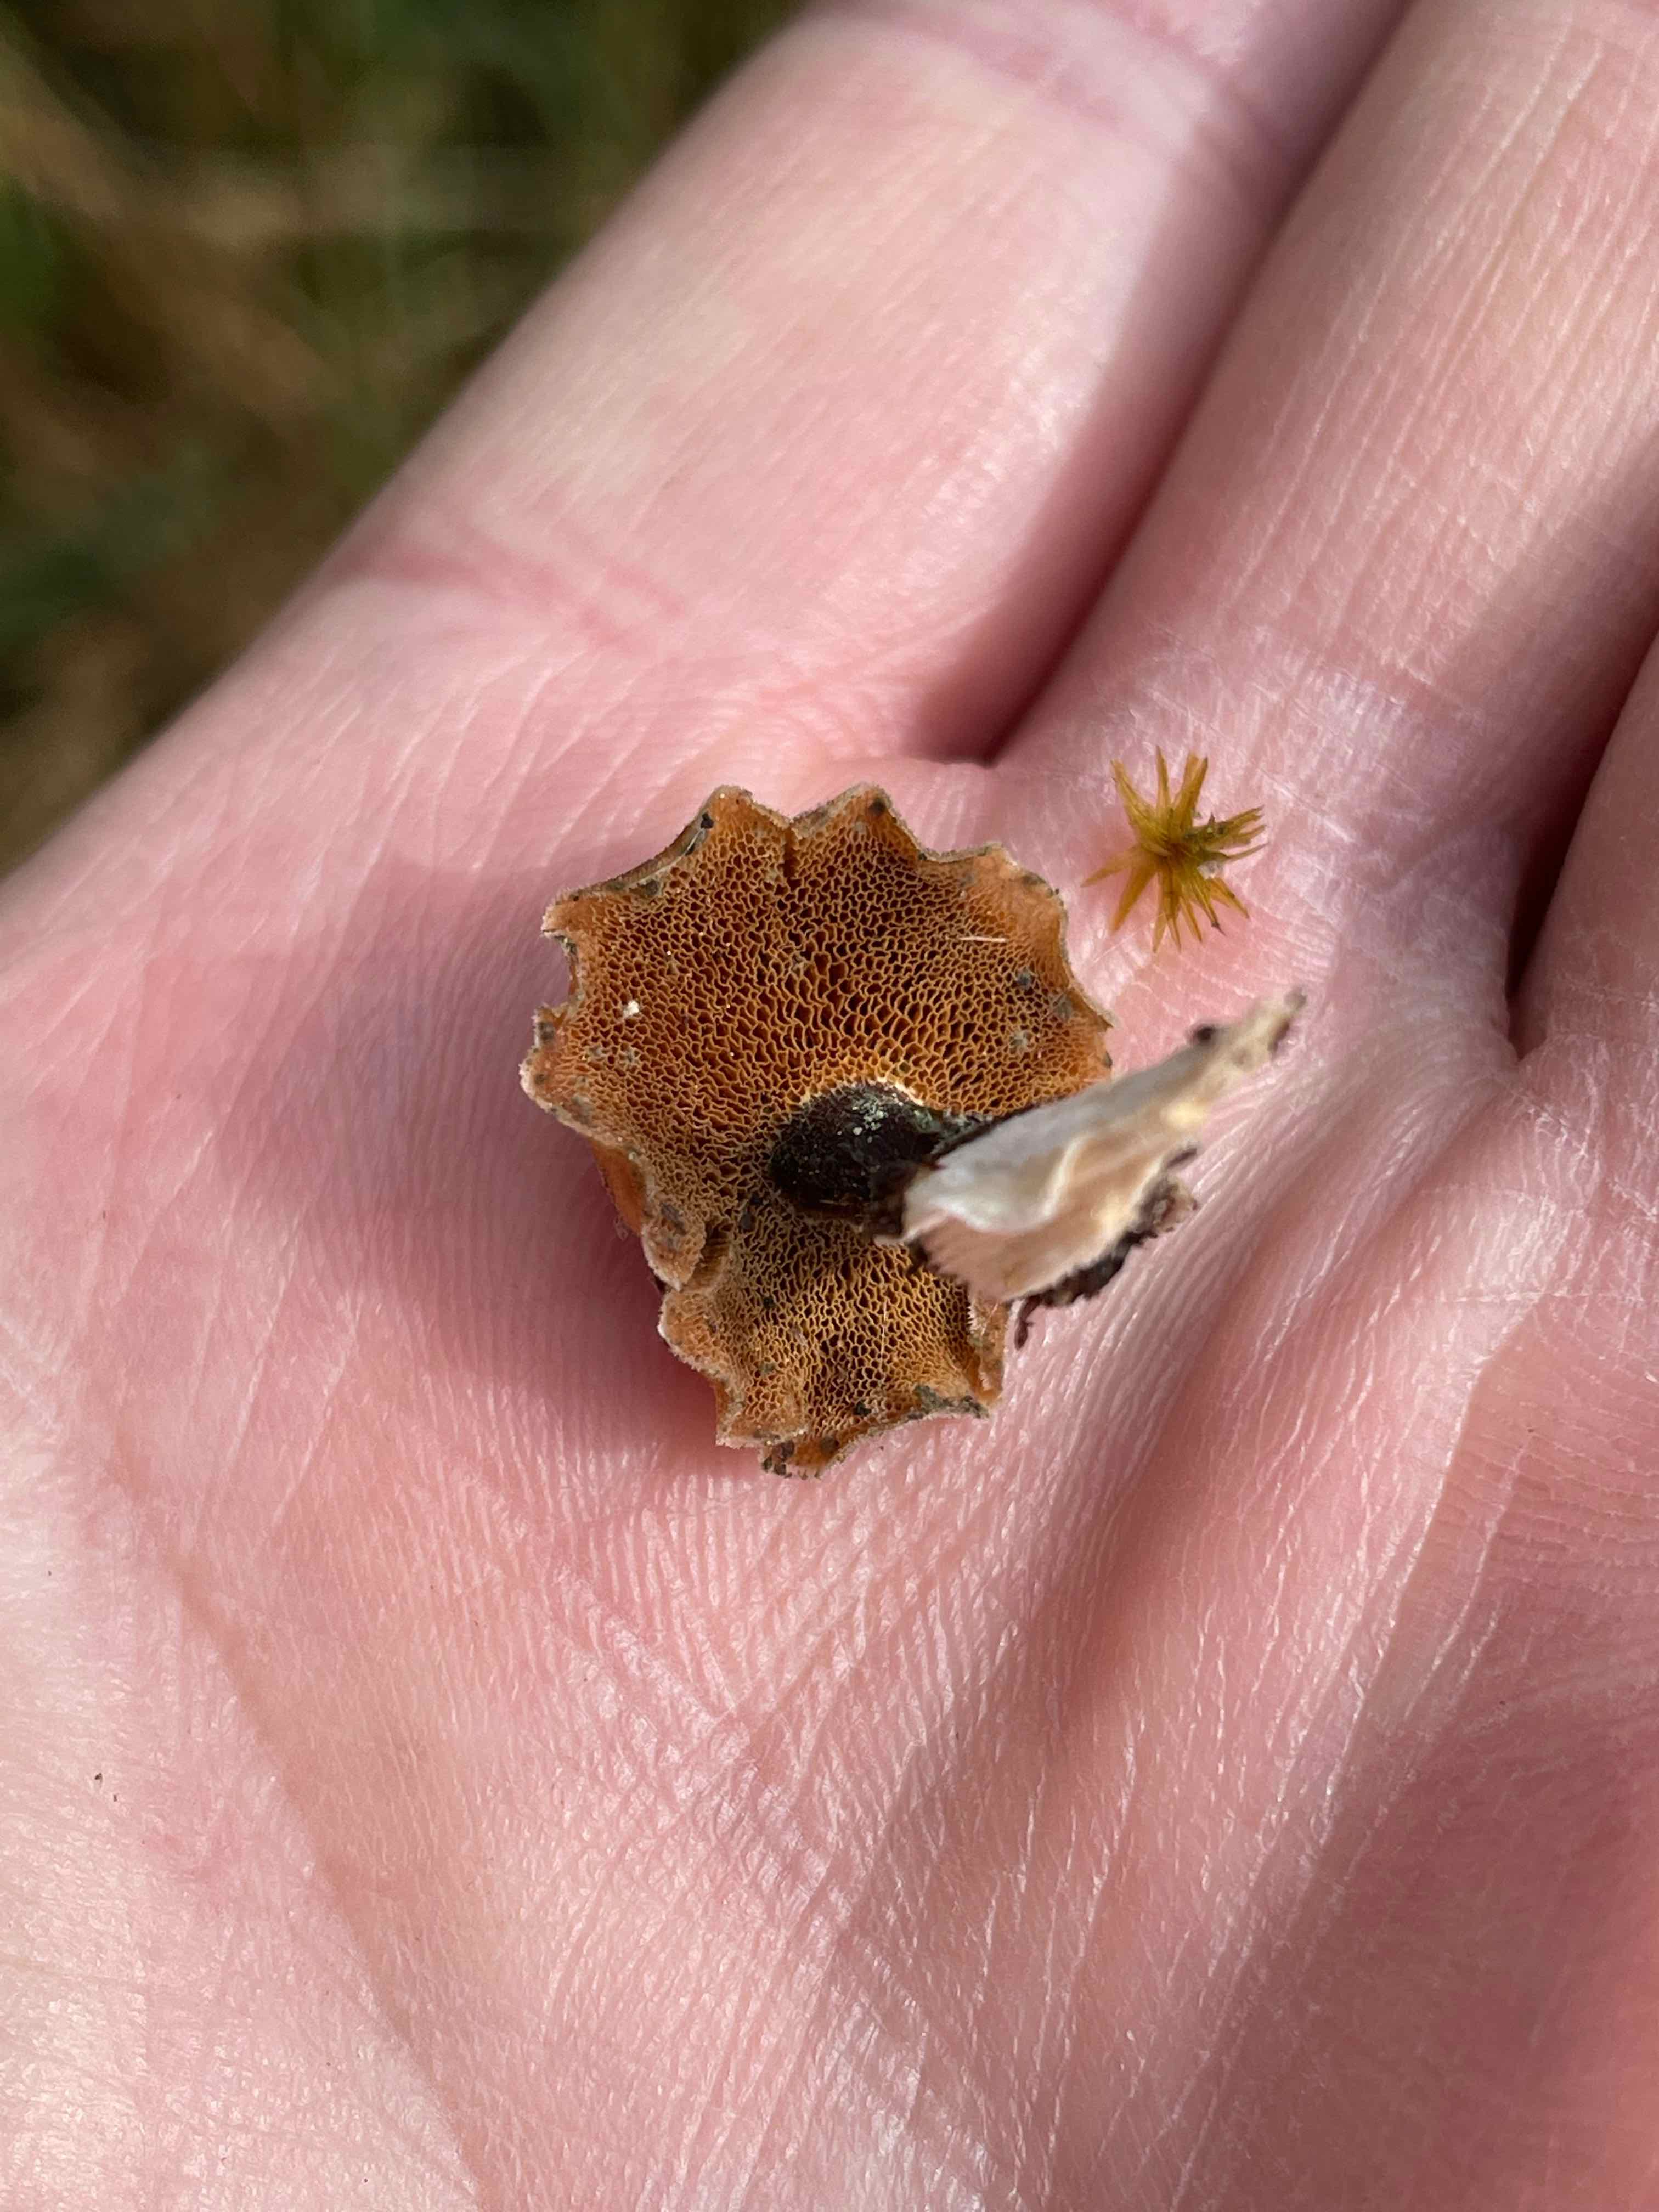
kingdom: Fungi
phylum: Basidiomycota
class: Agaricomycetes
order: Polyporales
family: Polyporaceae
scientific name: Polyporaceae
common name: poresvampfamilien
